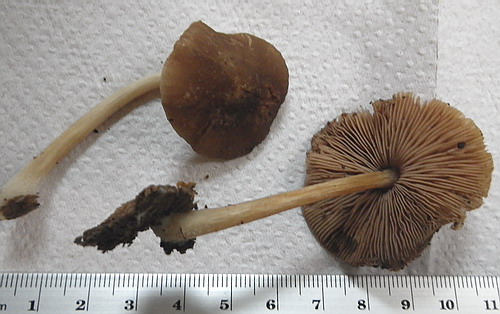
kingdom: Fungi
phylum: Basidiomycota
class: Agaricomycetes
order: Agaricales
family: Pluteaceae
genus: Pluteus
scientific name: Pluteus phlebophorus
